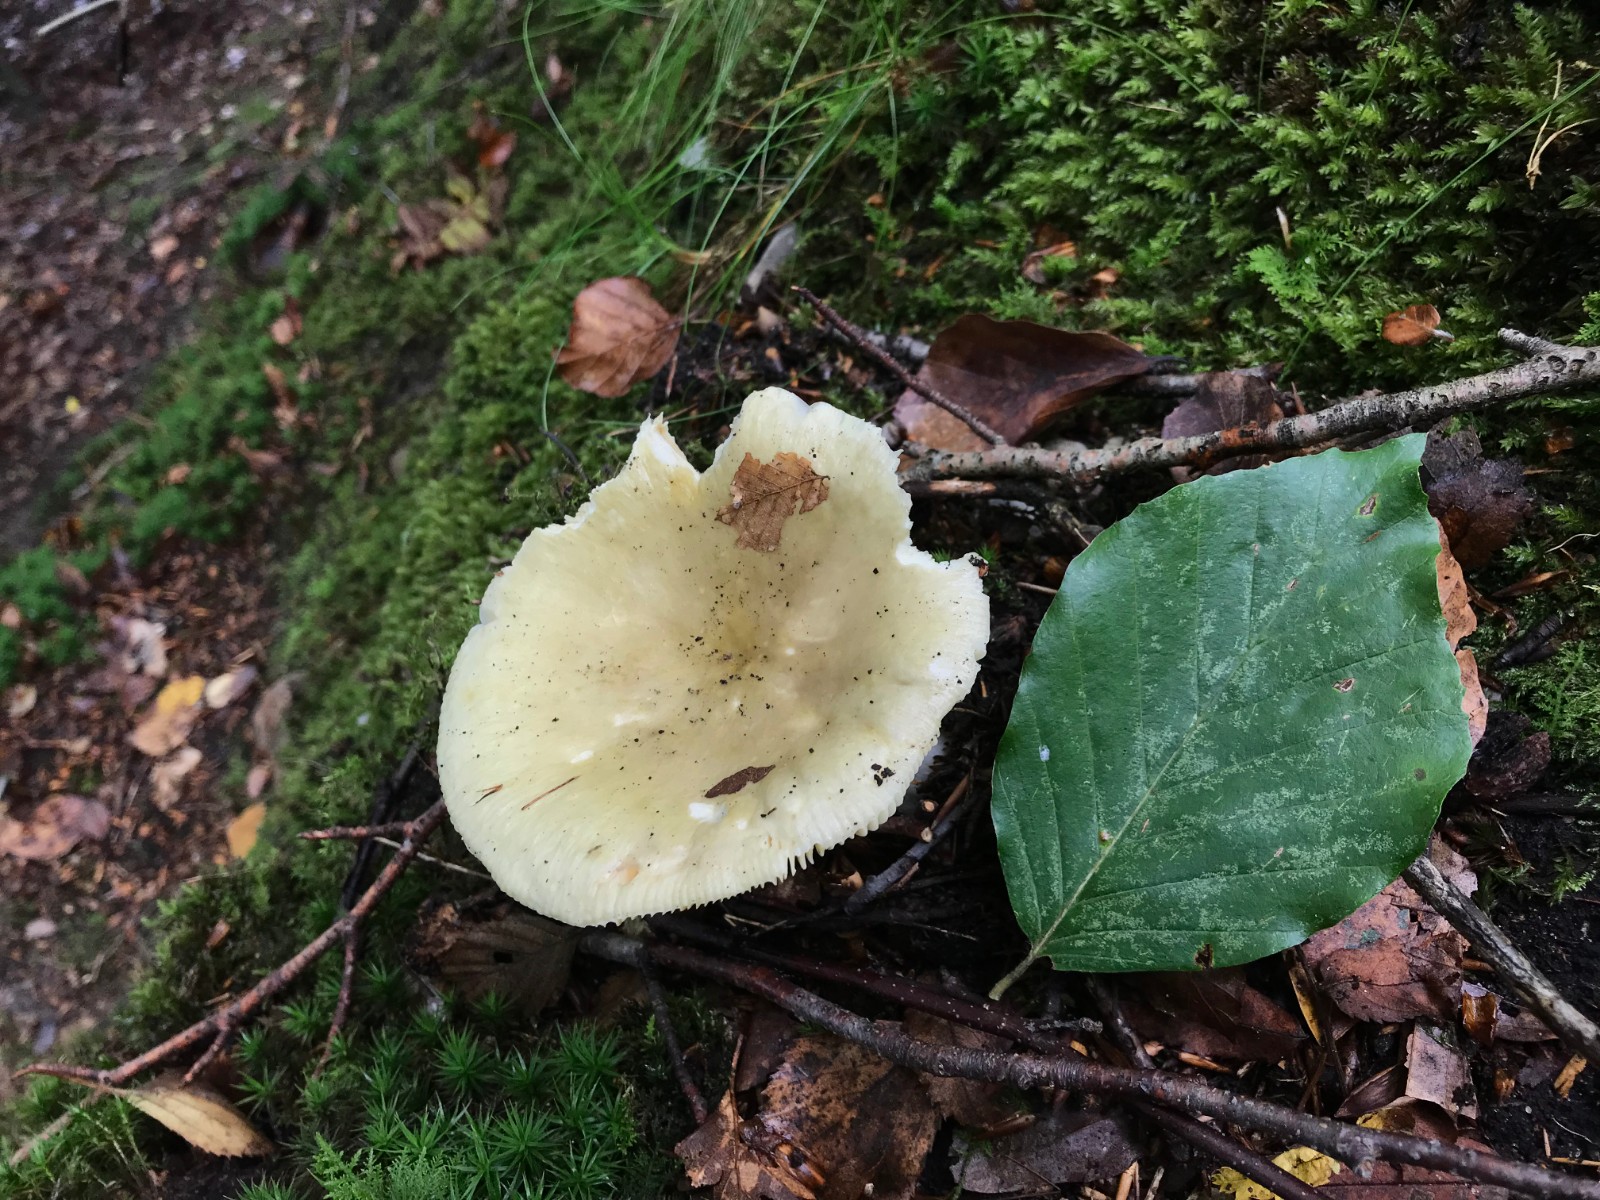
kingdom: Fungi
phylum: Basidiomycota
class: Agaricomycetes
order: Russulales
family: Russulaceae
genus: Russula
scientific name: Russula romellii
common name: romells skørhat
